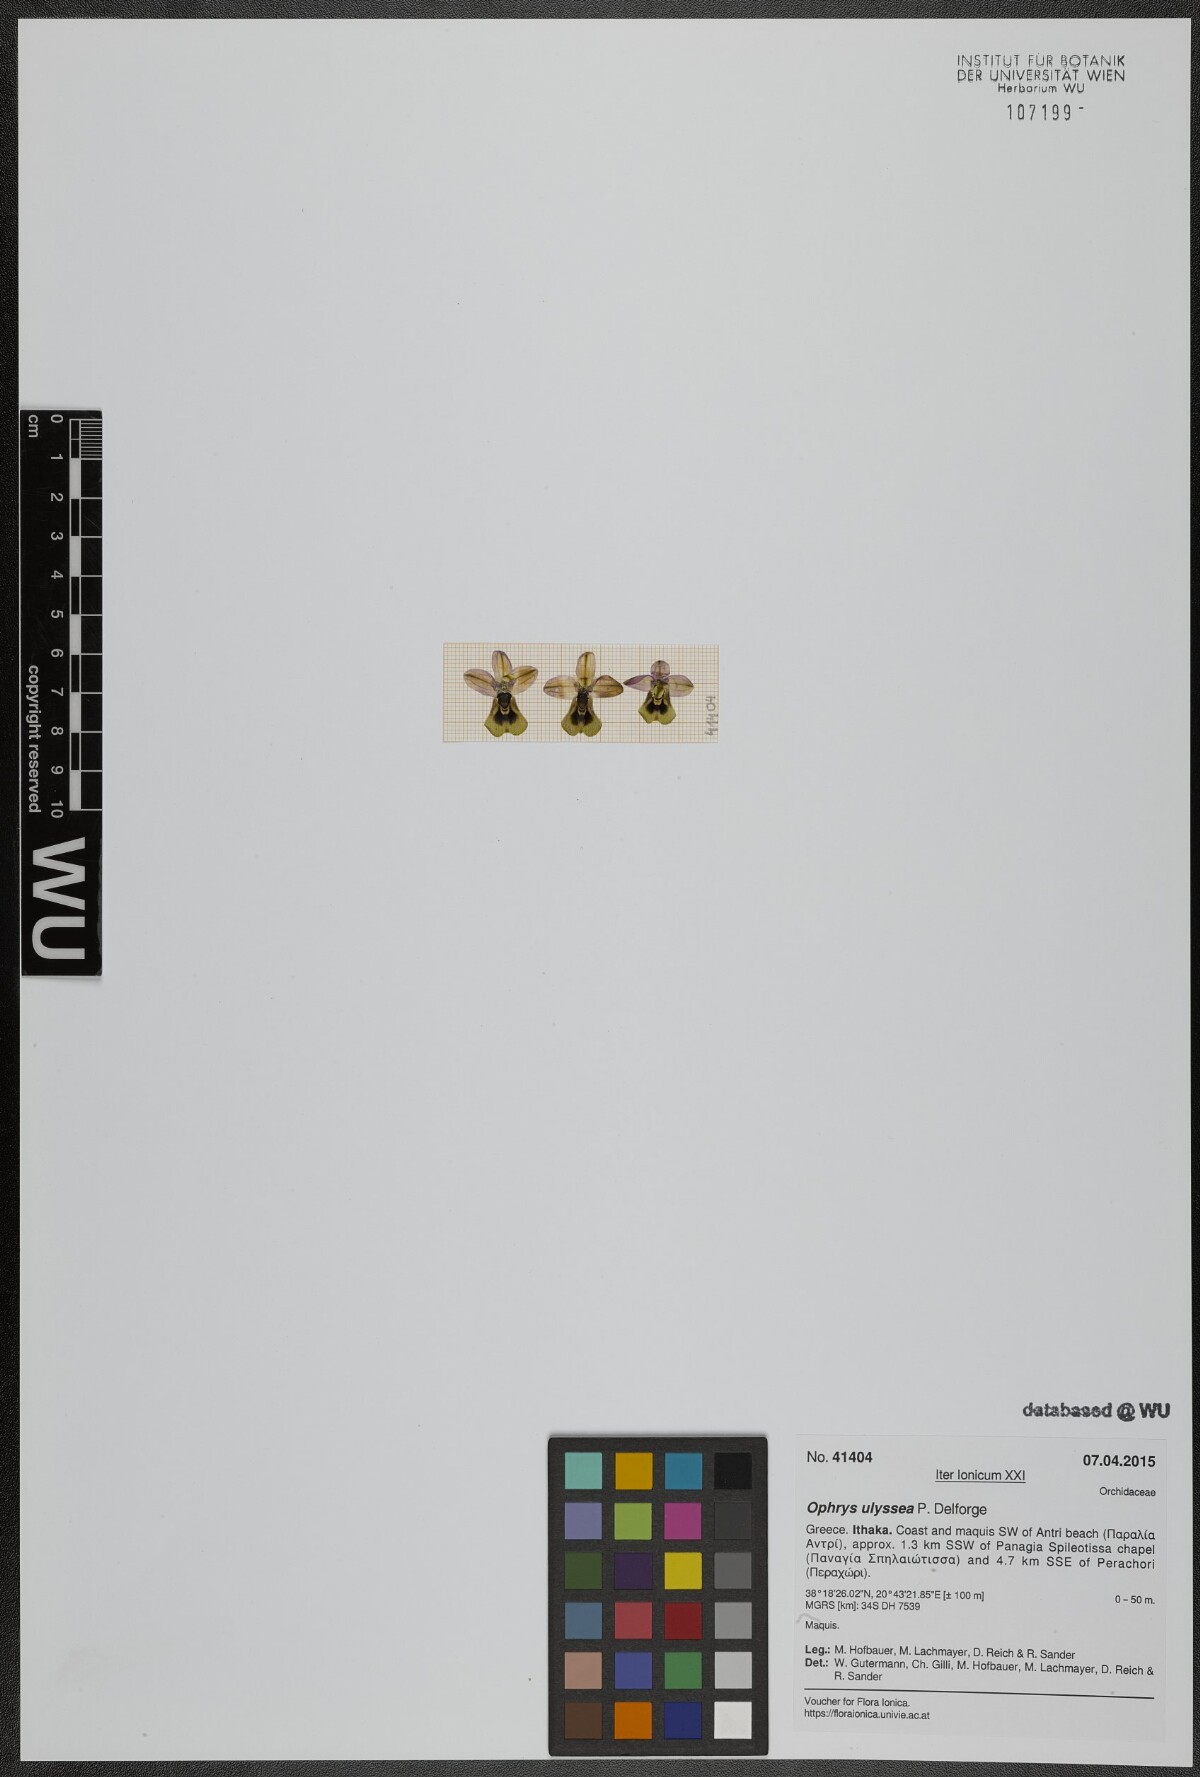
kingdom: Plantae
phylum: Tracheophyta
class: Liliopsida
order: Asparagales
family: Orchidaceae
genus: Ophrys
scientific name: Ophrys tenthredinifera
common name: Sawfly orchid
